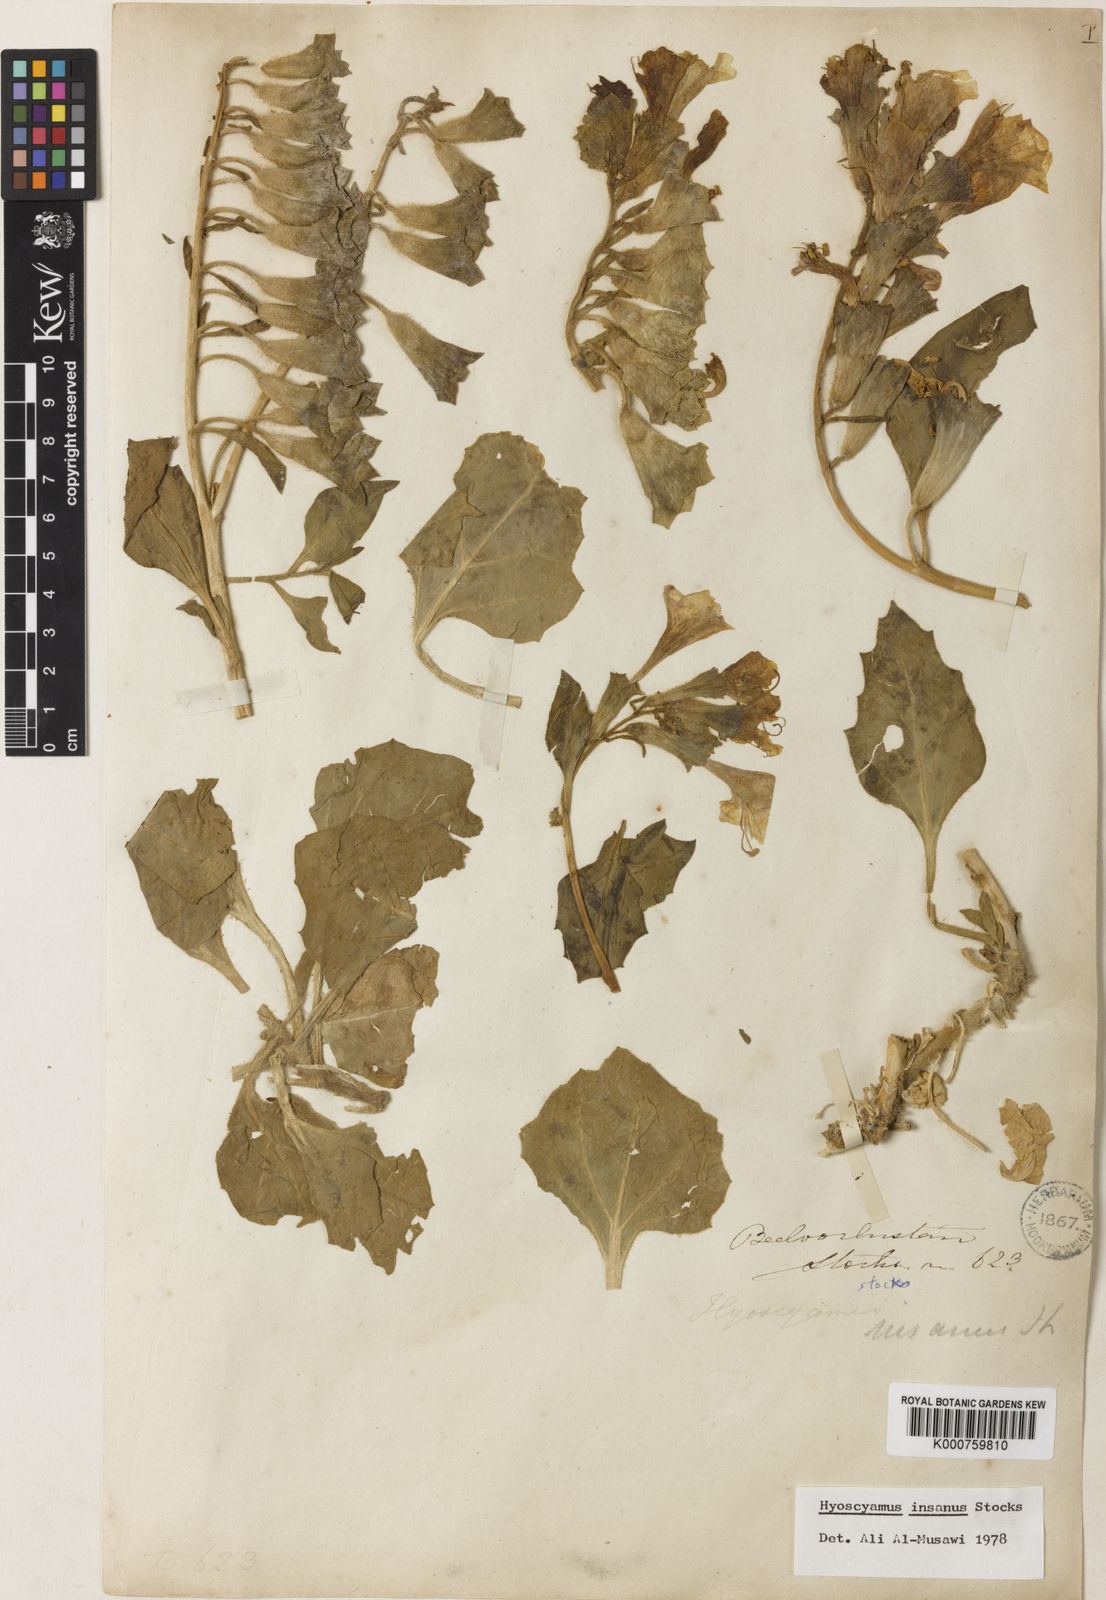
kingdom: Plantae
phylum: Tracheophyta
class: Magnoliopsida
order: Solanales
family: Solanaceae
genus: Hyoscyamus
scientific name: Hyoscyamus insanus
